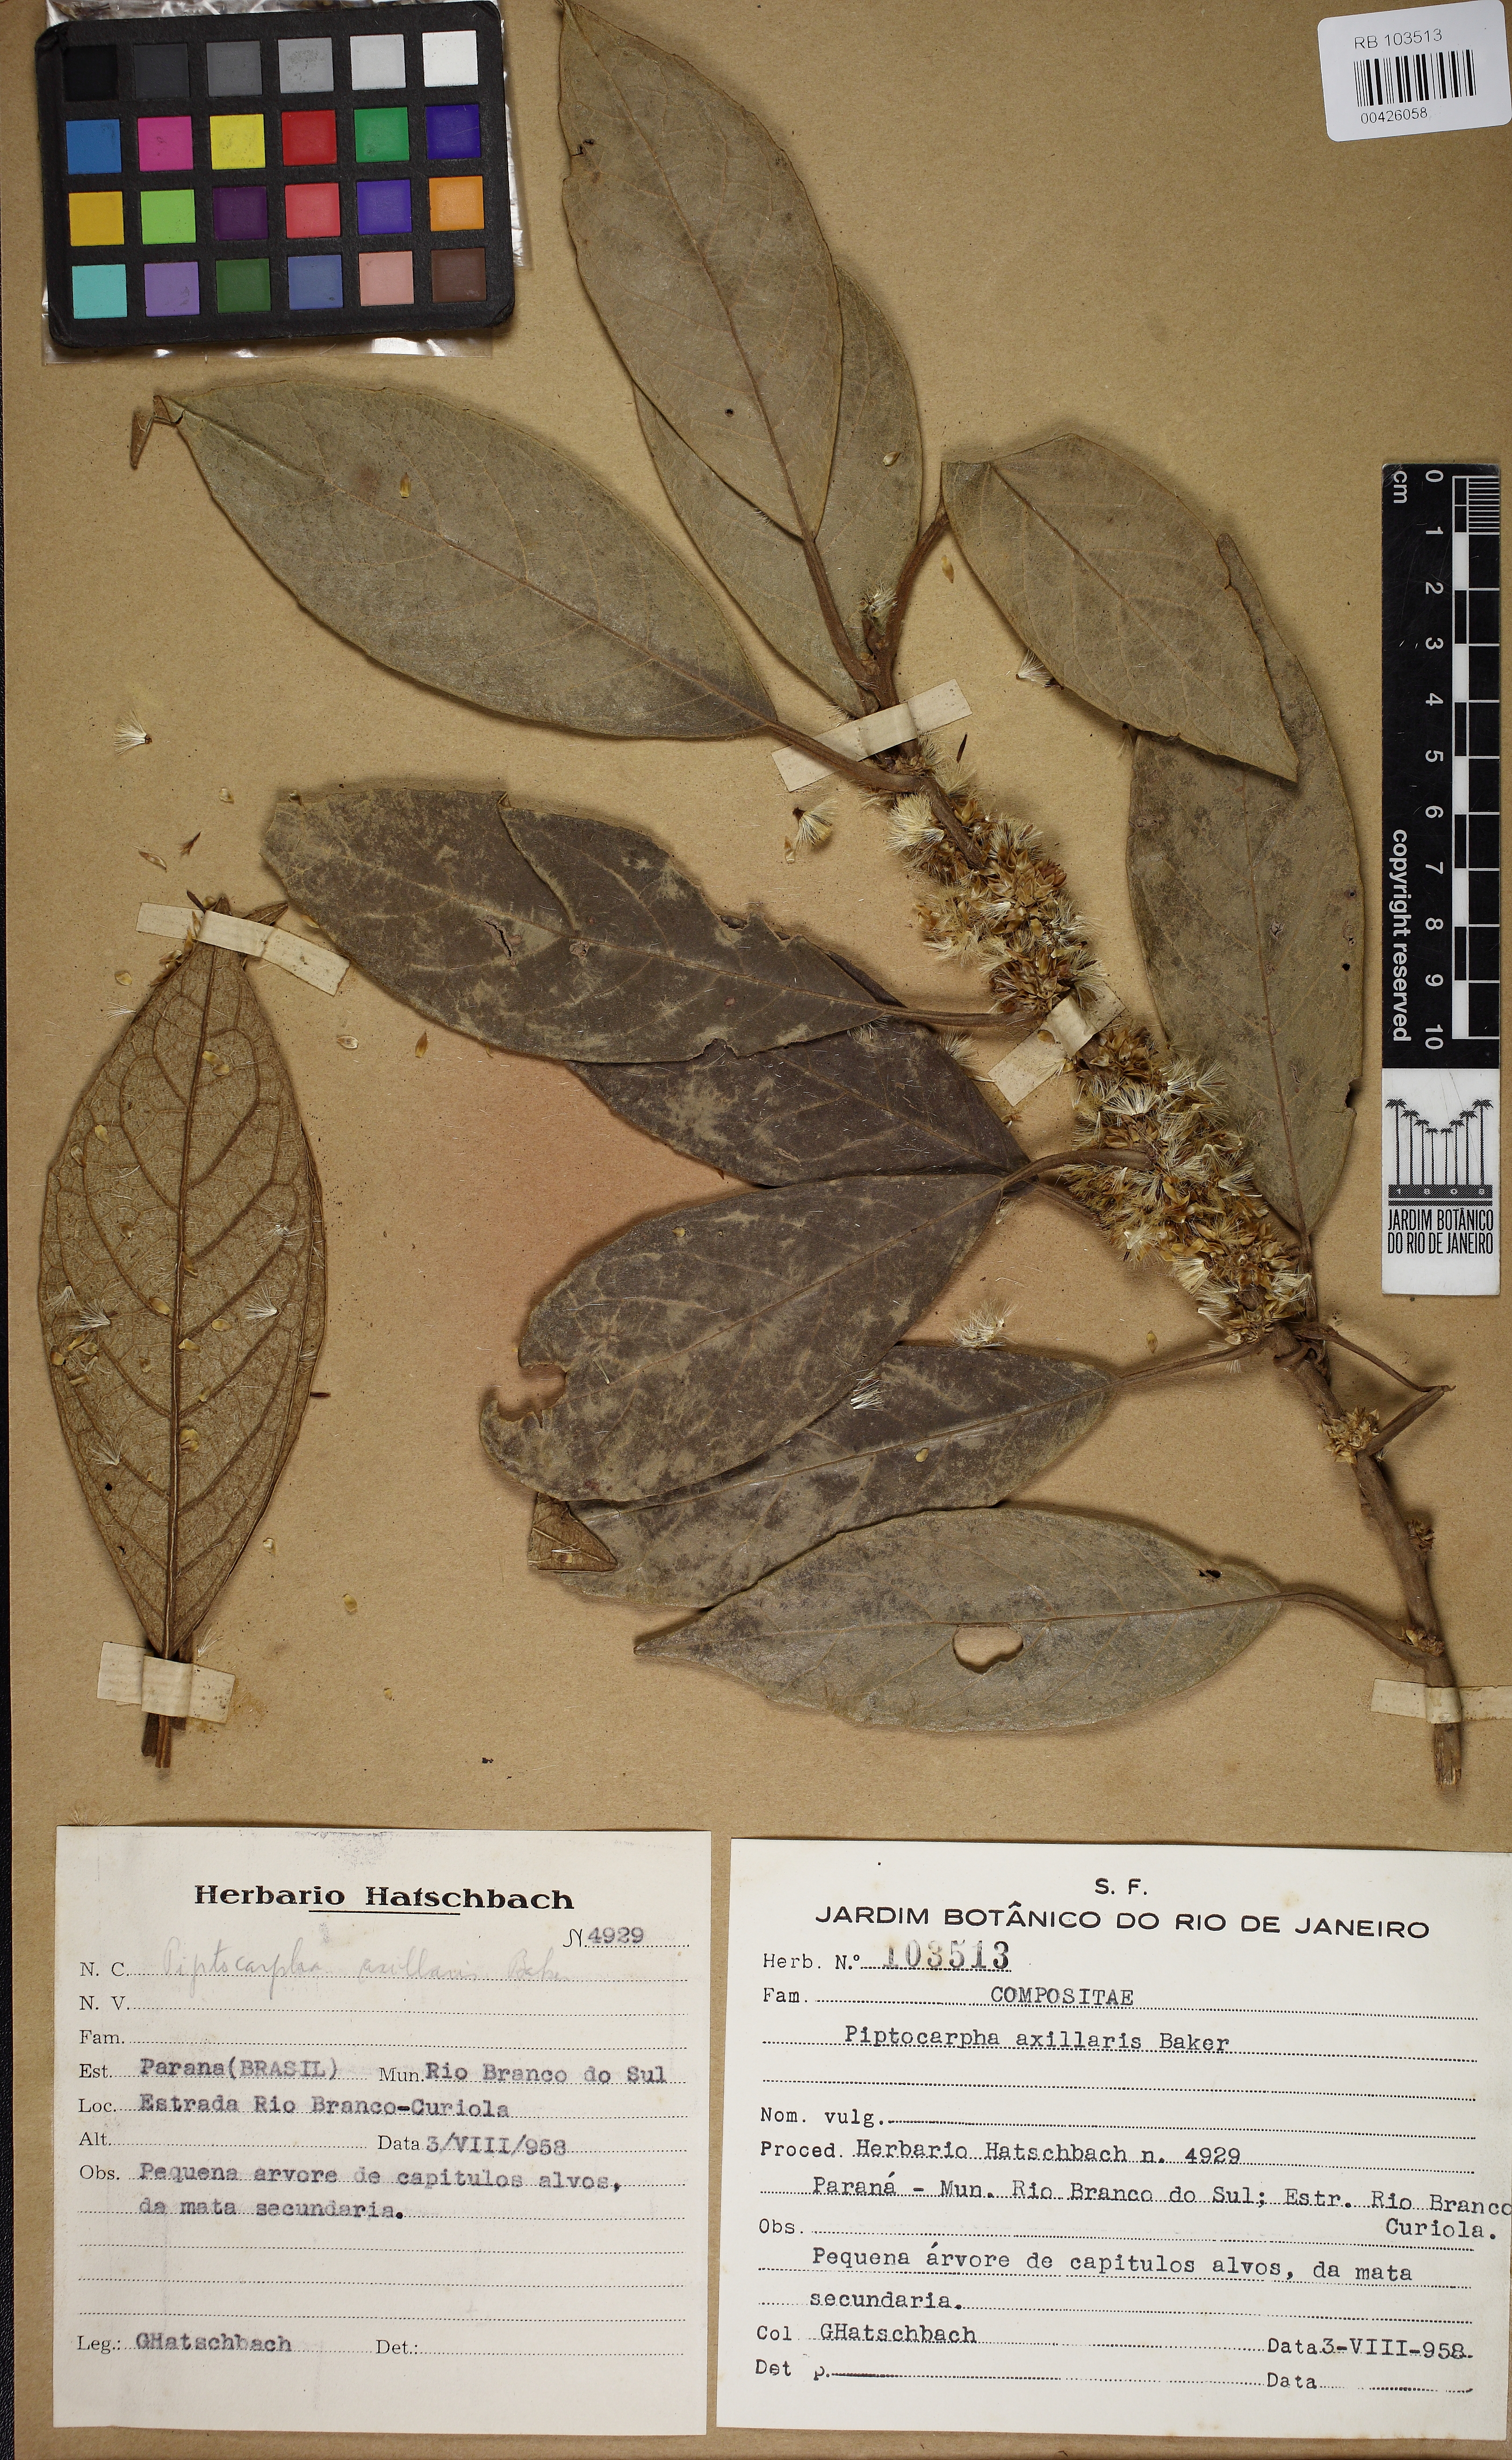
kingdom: Plantae
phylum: Tracheophyta
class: Magnoliopsida
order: Asterales
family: Asteraceae
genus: Piptocarpha
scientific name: Piptocarpha axillaris
